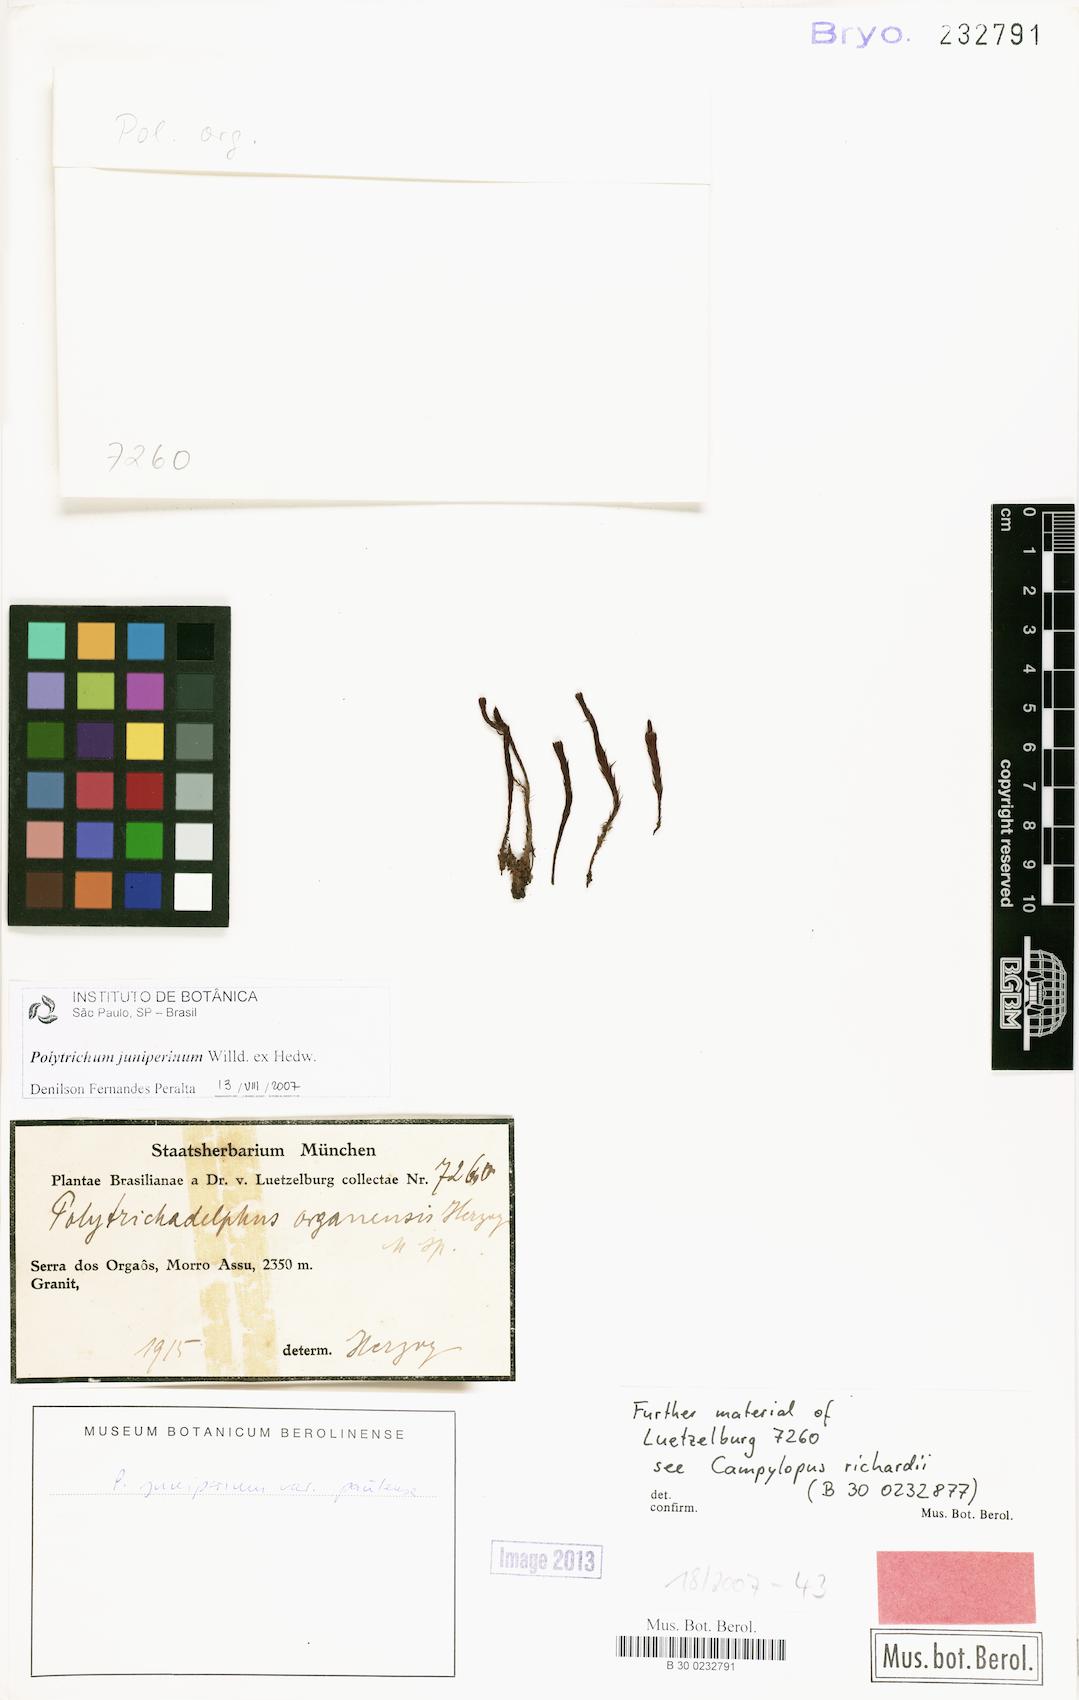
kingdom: Plantae
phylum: Bryophyta
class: Polytrichopsida
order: Polytrichales
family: Polytrichaceae
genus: Polytrichum
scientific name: Polytrichum juniperinum
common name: Juniper haircap moss
